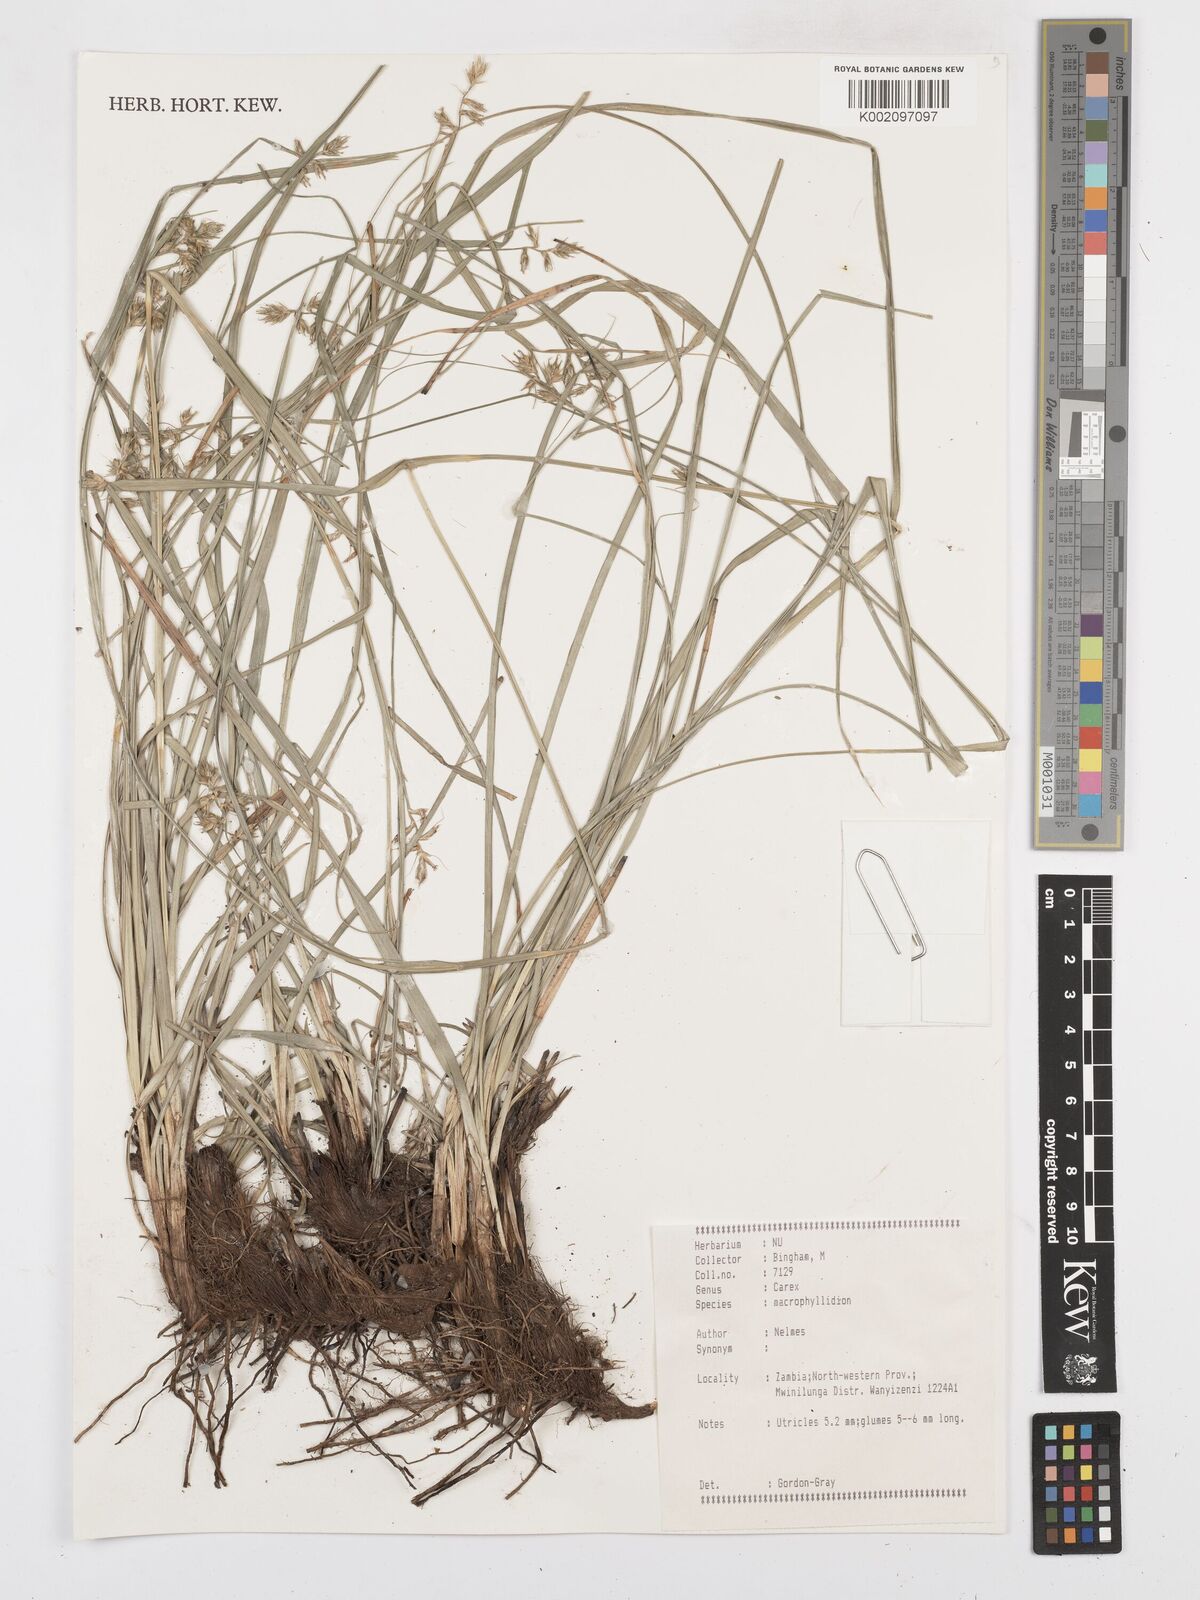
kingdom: Plantae
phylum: Tracheophyta
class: Liliopsida
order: Poales
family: Cyperaceae
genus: Carex
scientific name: Carex macrophyllidion
